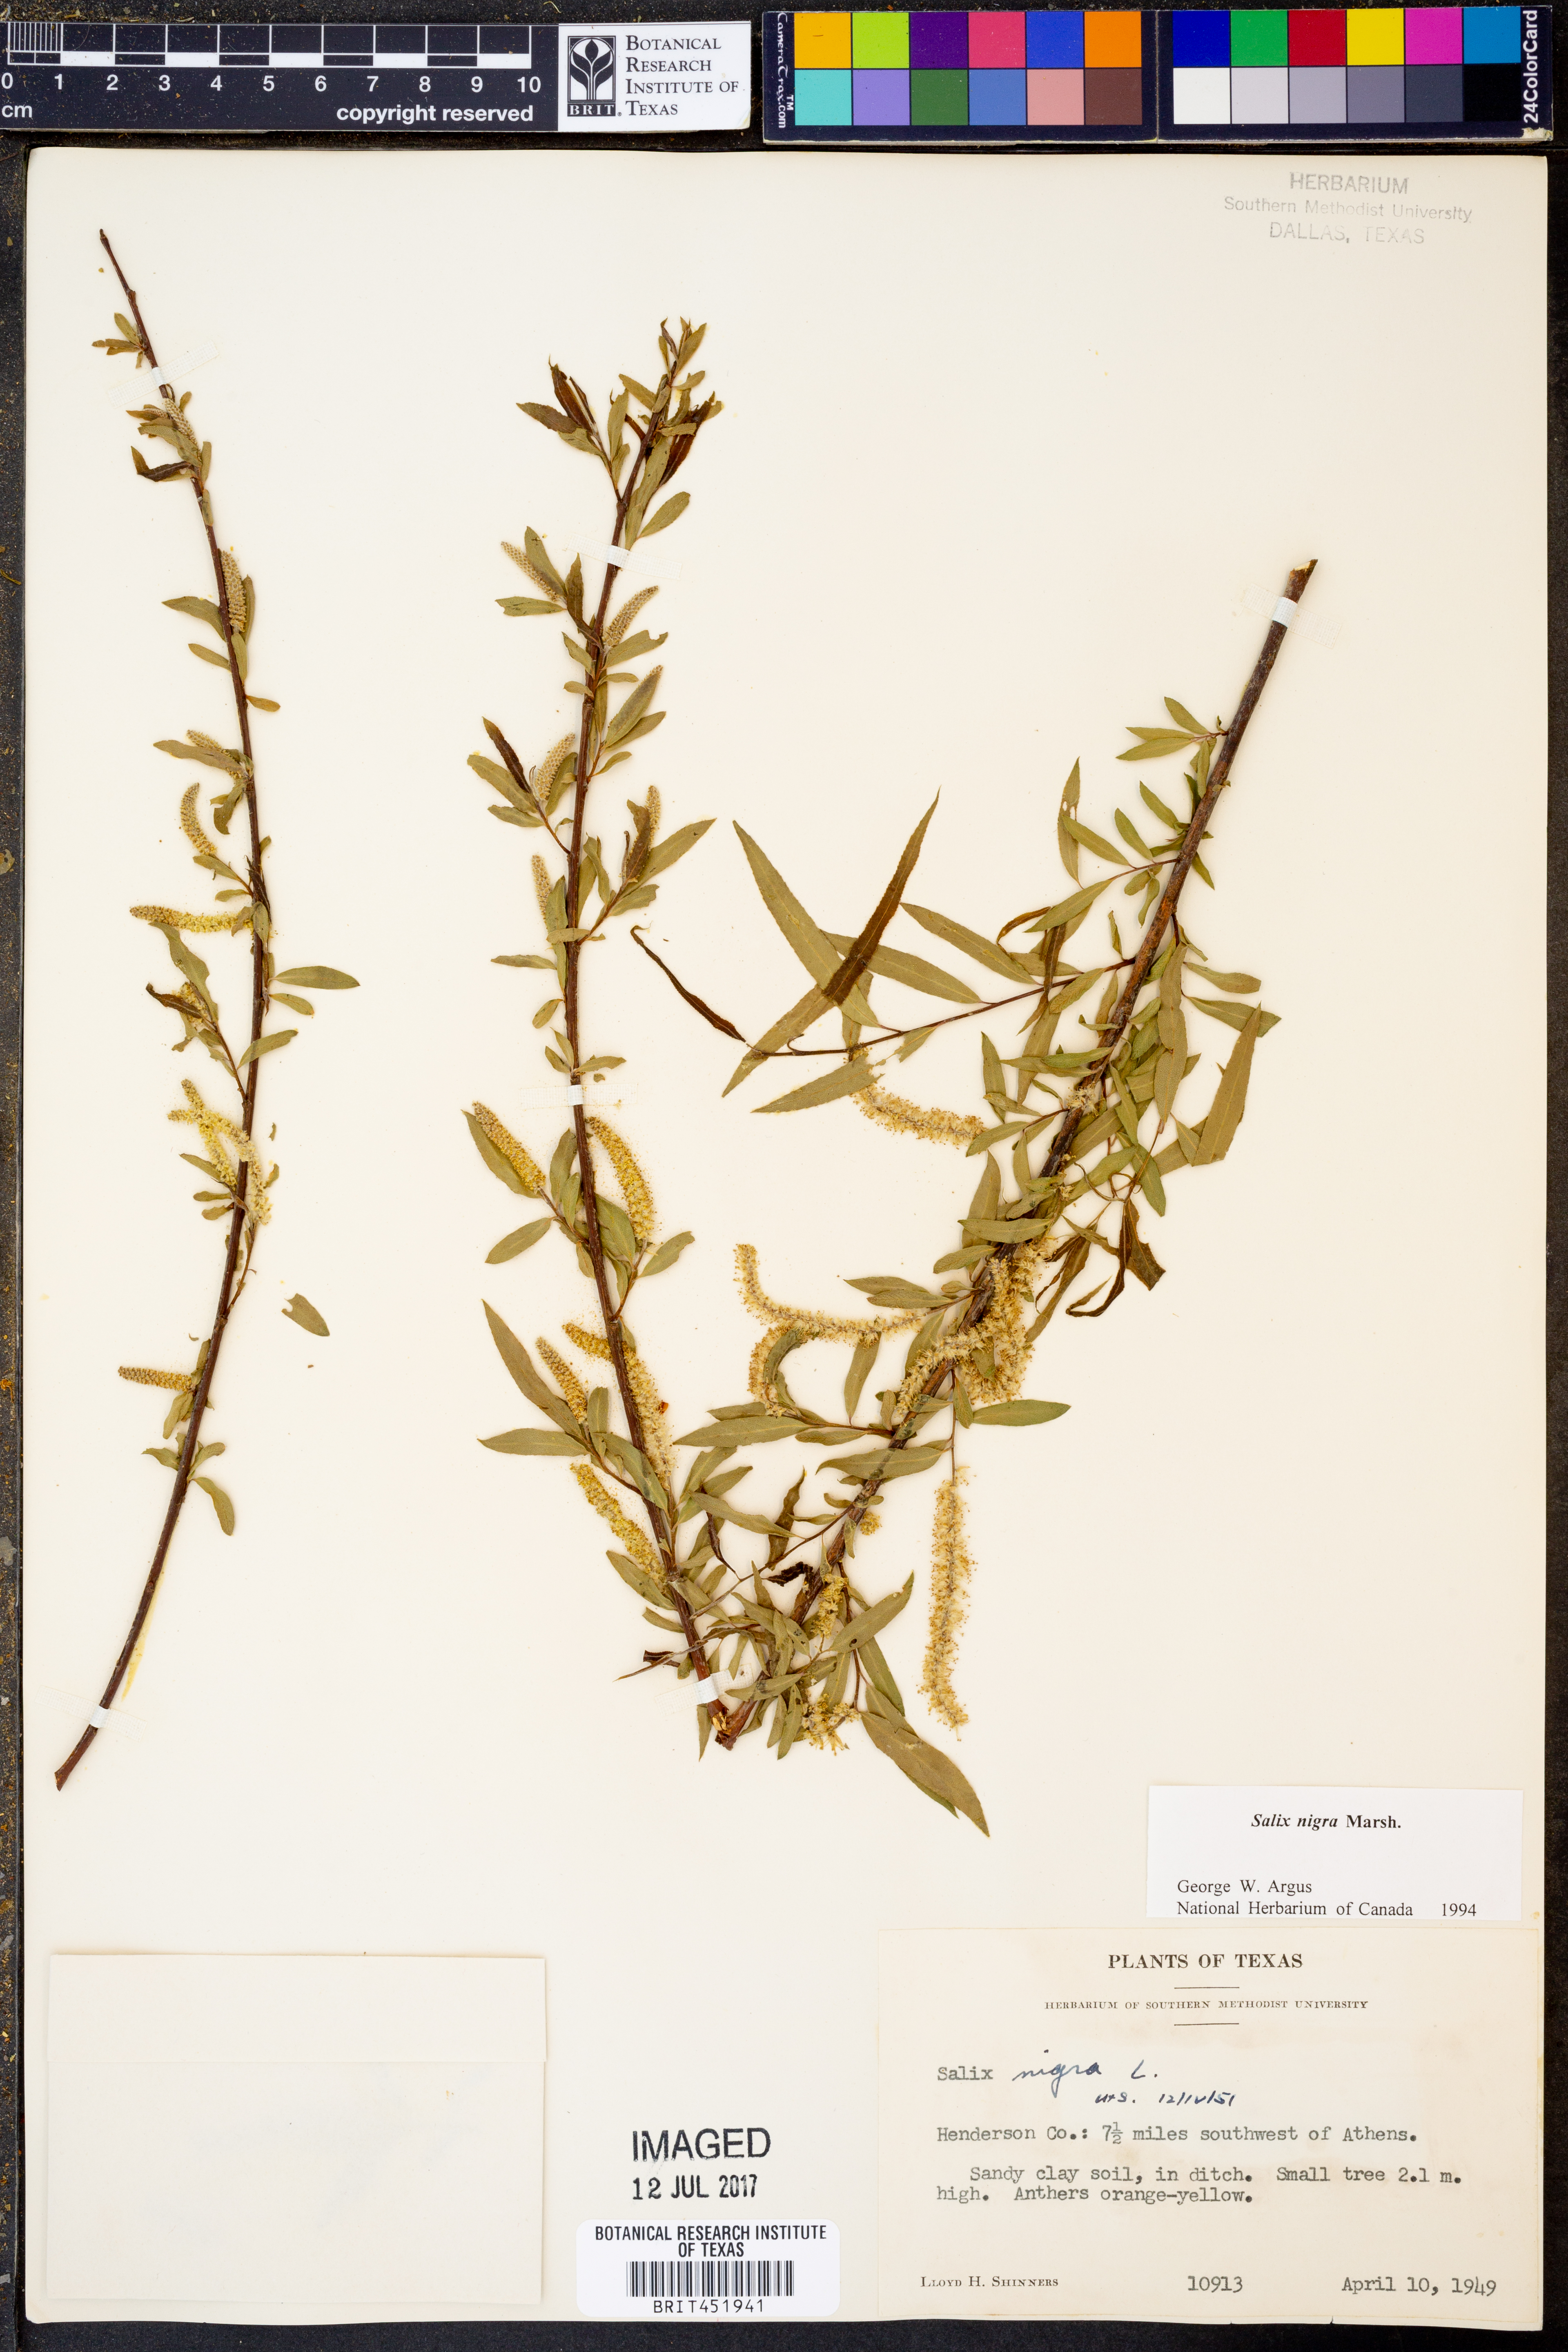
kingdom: Plantae
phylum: Tracheophyta
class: Magnoliopsida
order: Malpighiales
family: Salicaceae
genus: Salix
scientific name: Salix nigra
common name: Black willow
